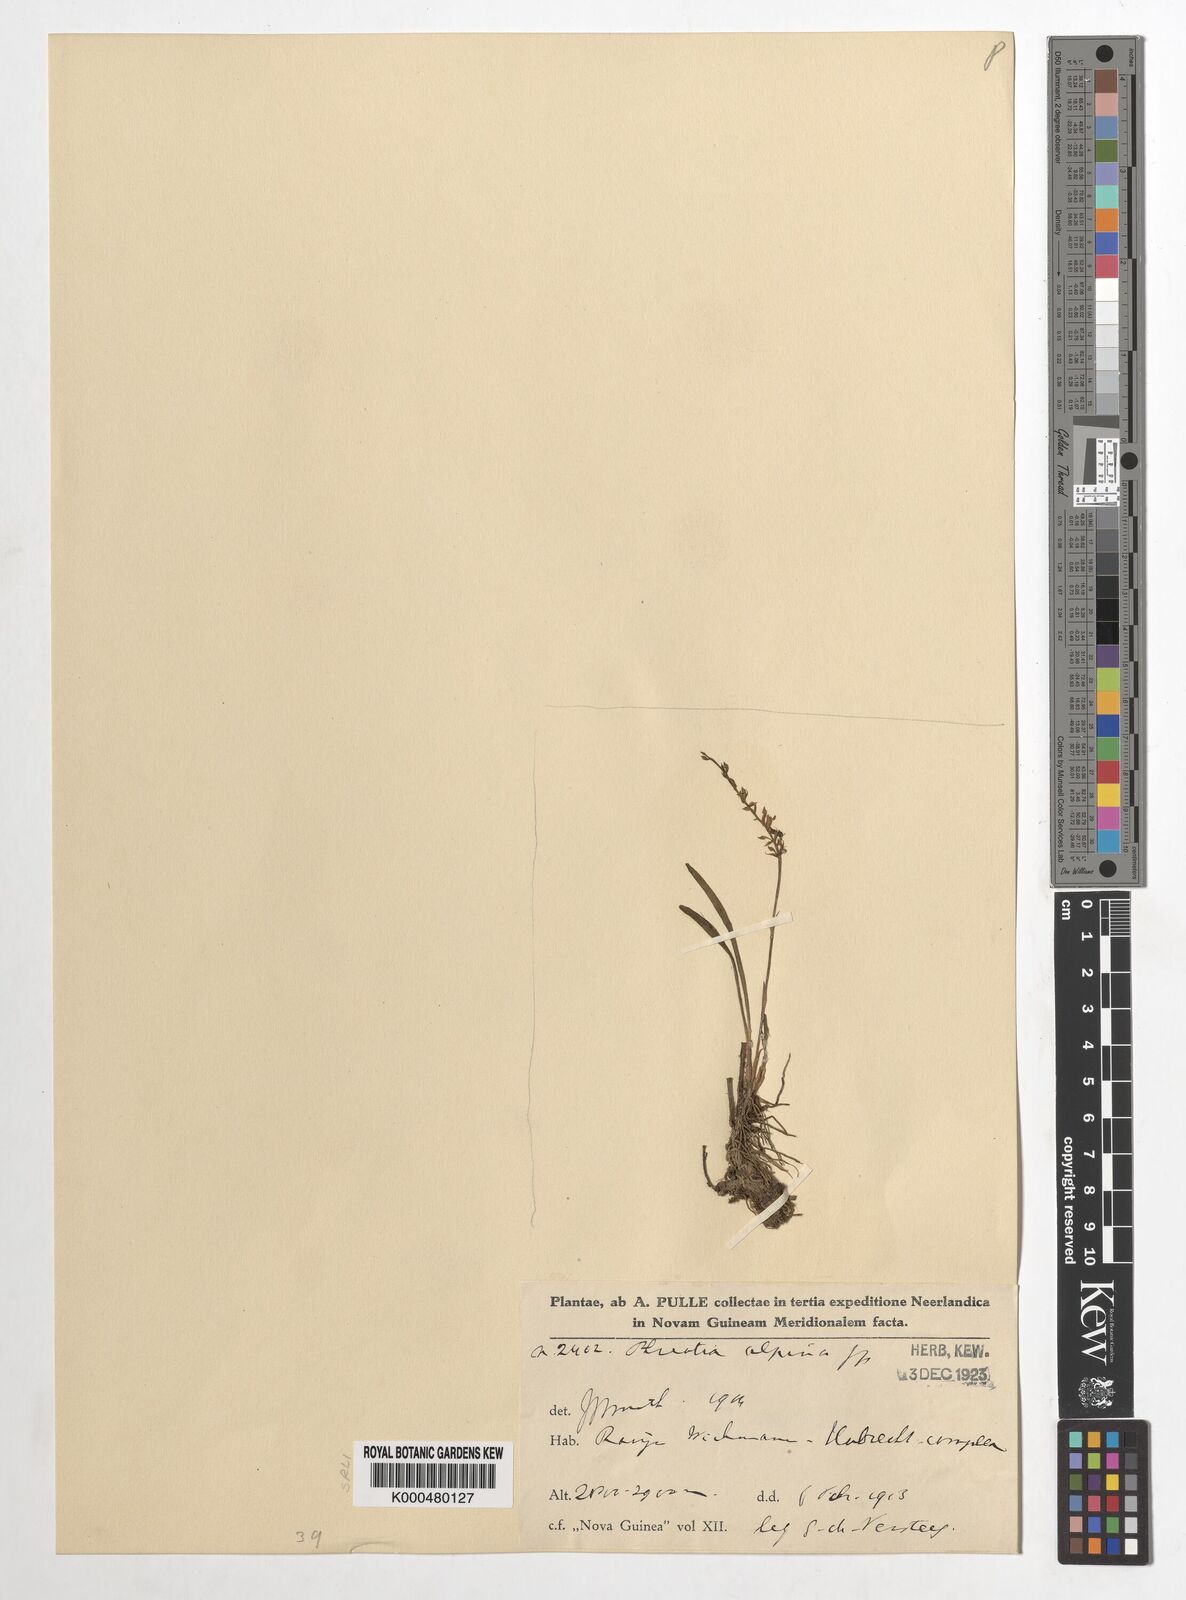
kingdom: Plantae
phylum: Tracheophyta
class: Liliopsida
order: Asparagales
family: Orchidaceae
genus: Phreatia
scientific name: Phreatia alpina
